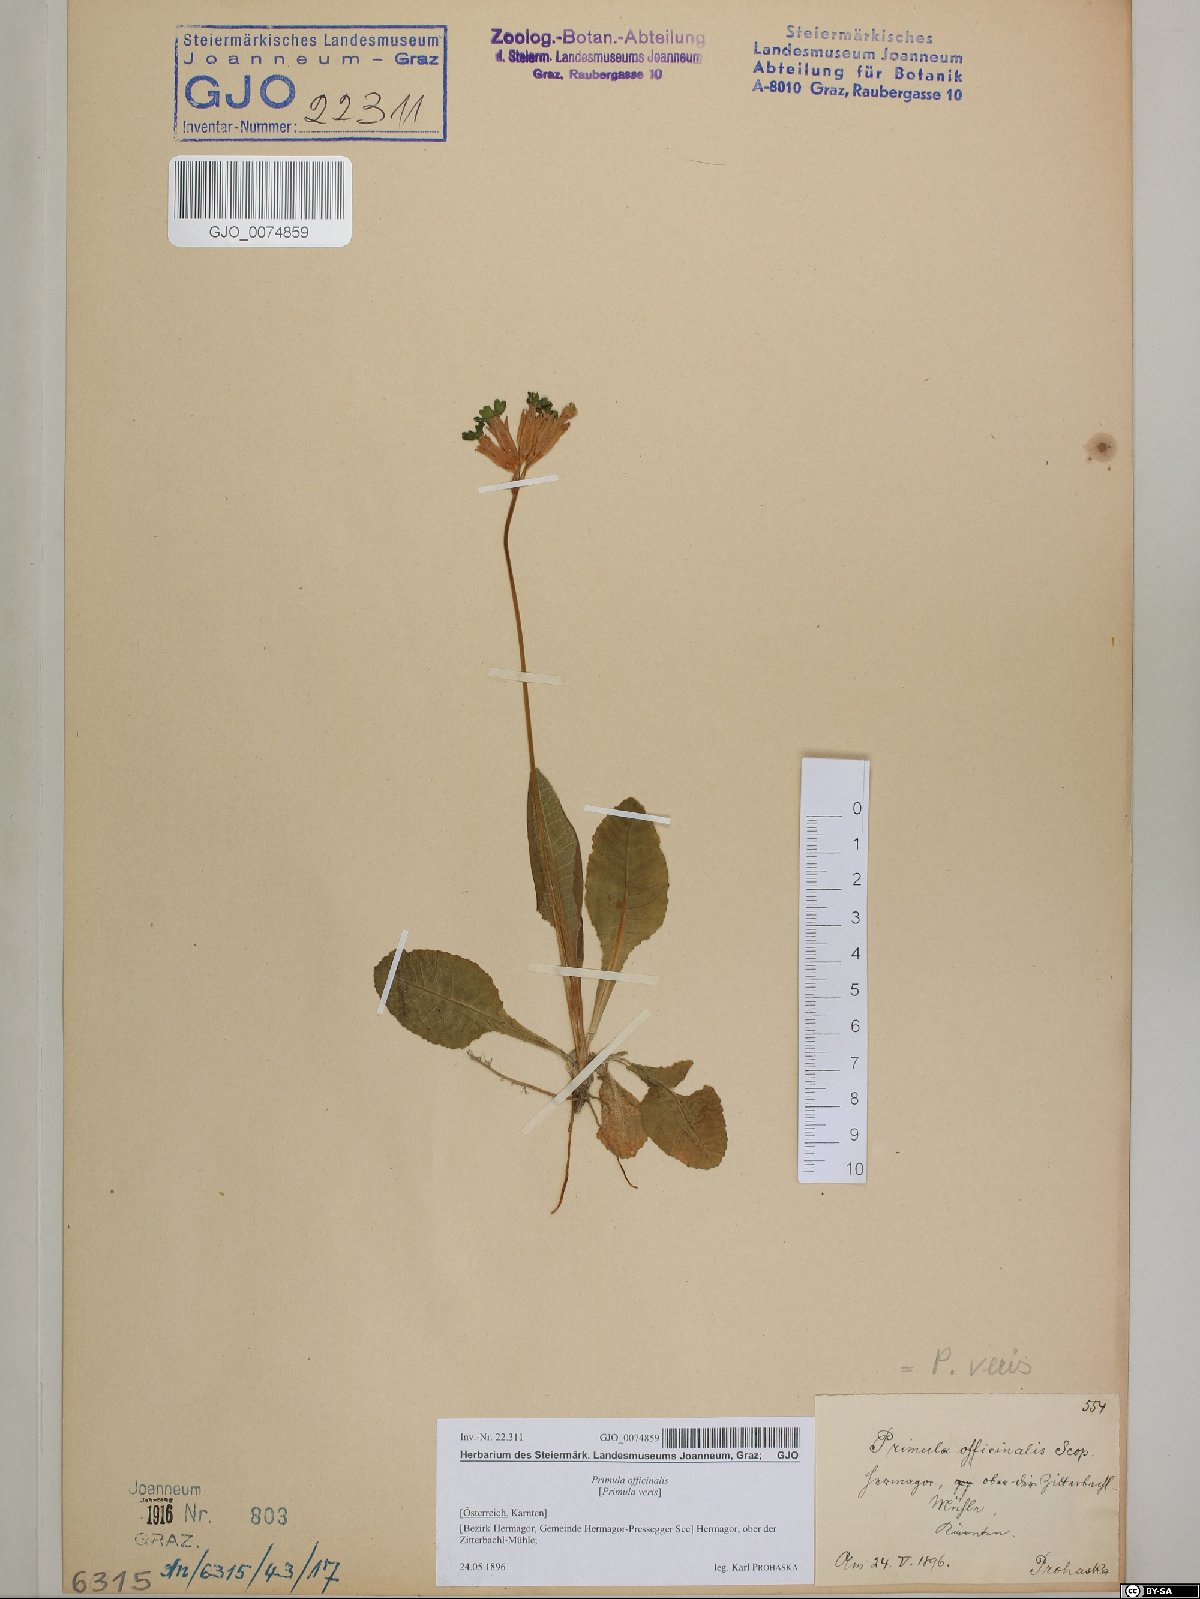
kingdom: Plantae
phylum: Tracheophyta
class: Magnoliopsida
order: Ericales
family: Primulaceae
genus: Primula
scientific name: Primula veris
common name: Cowslip
